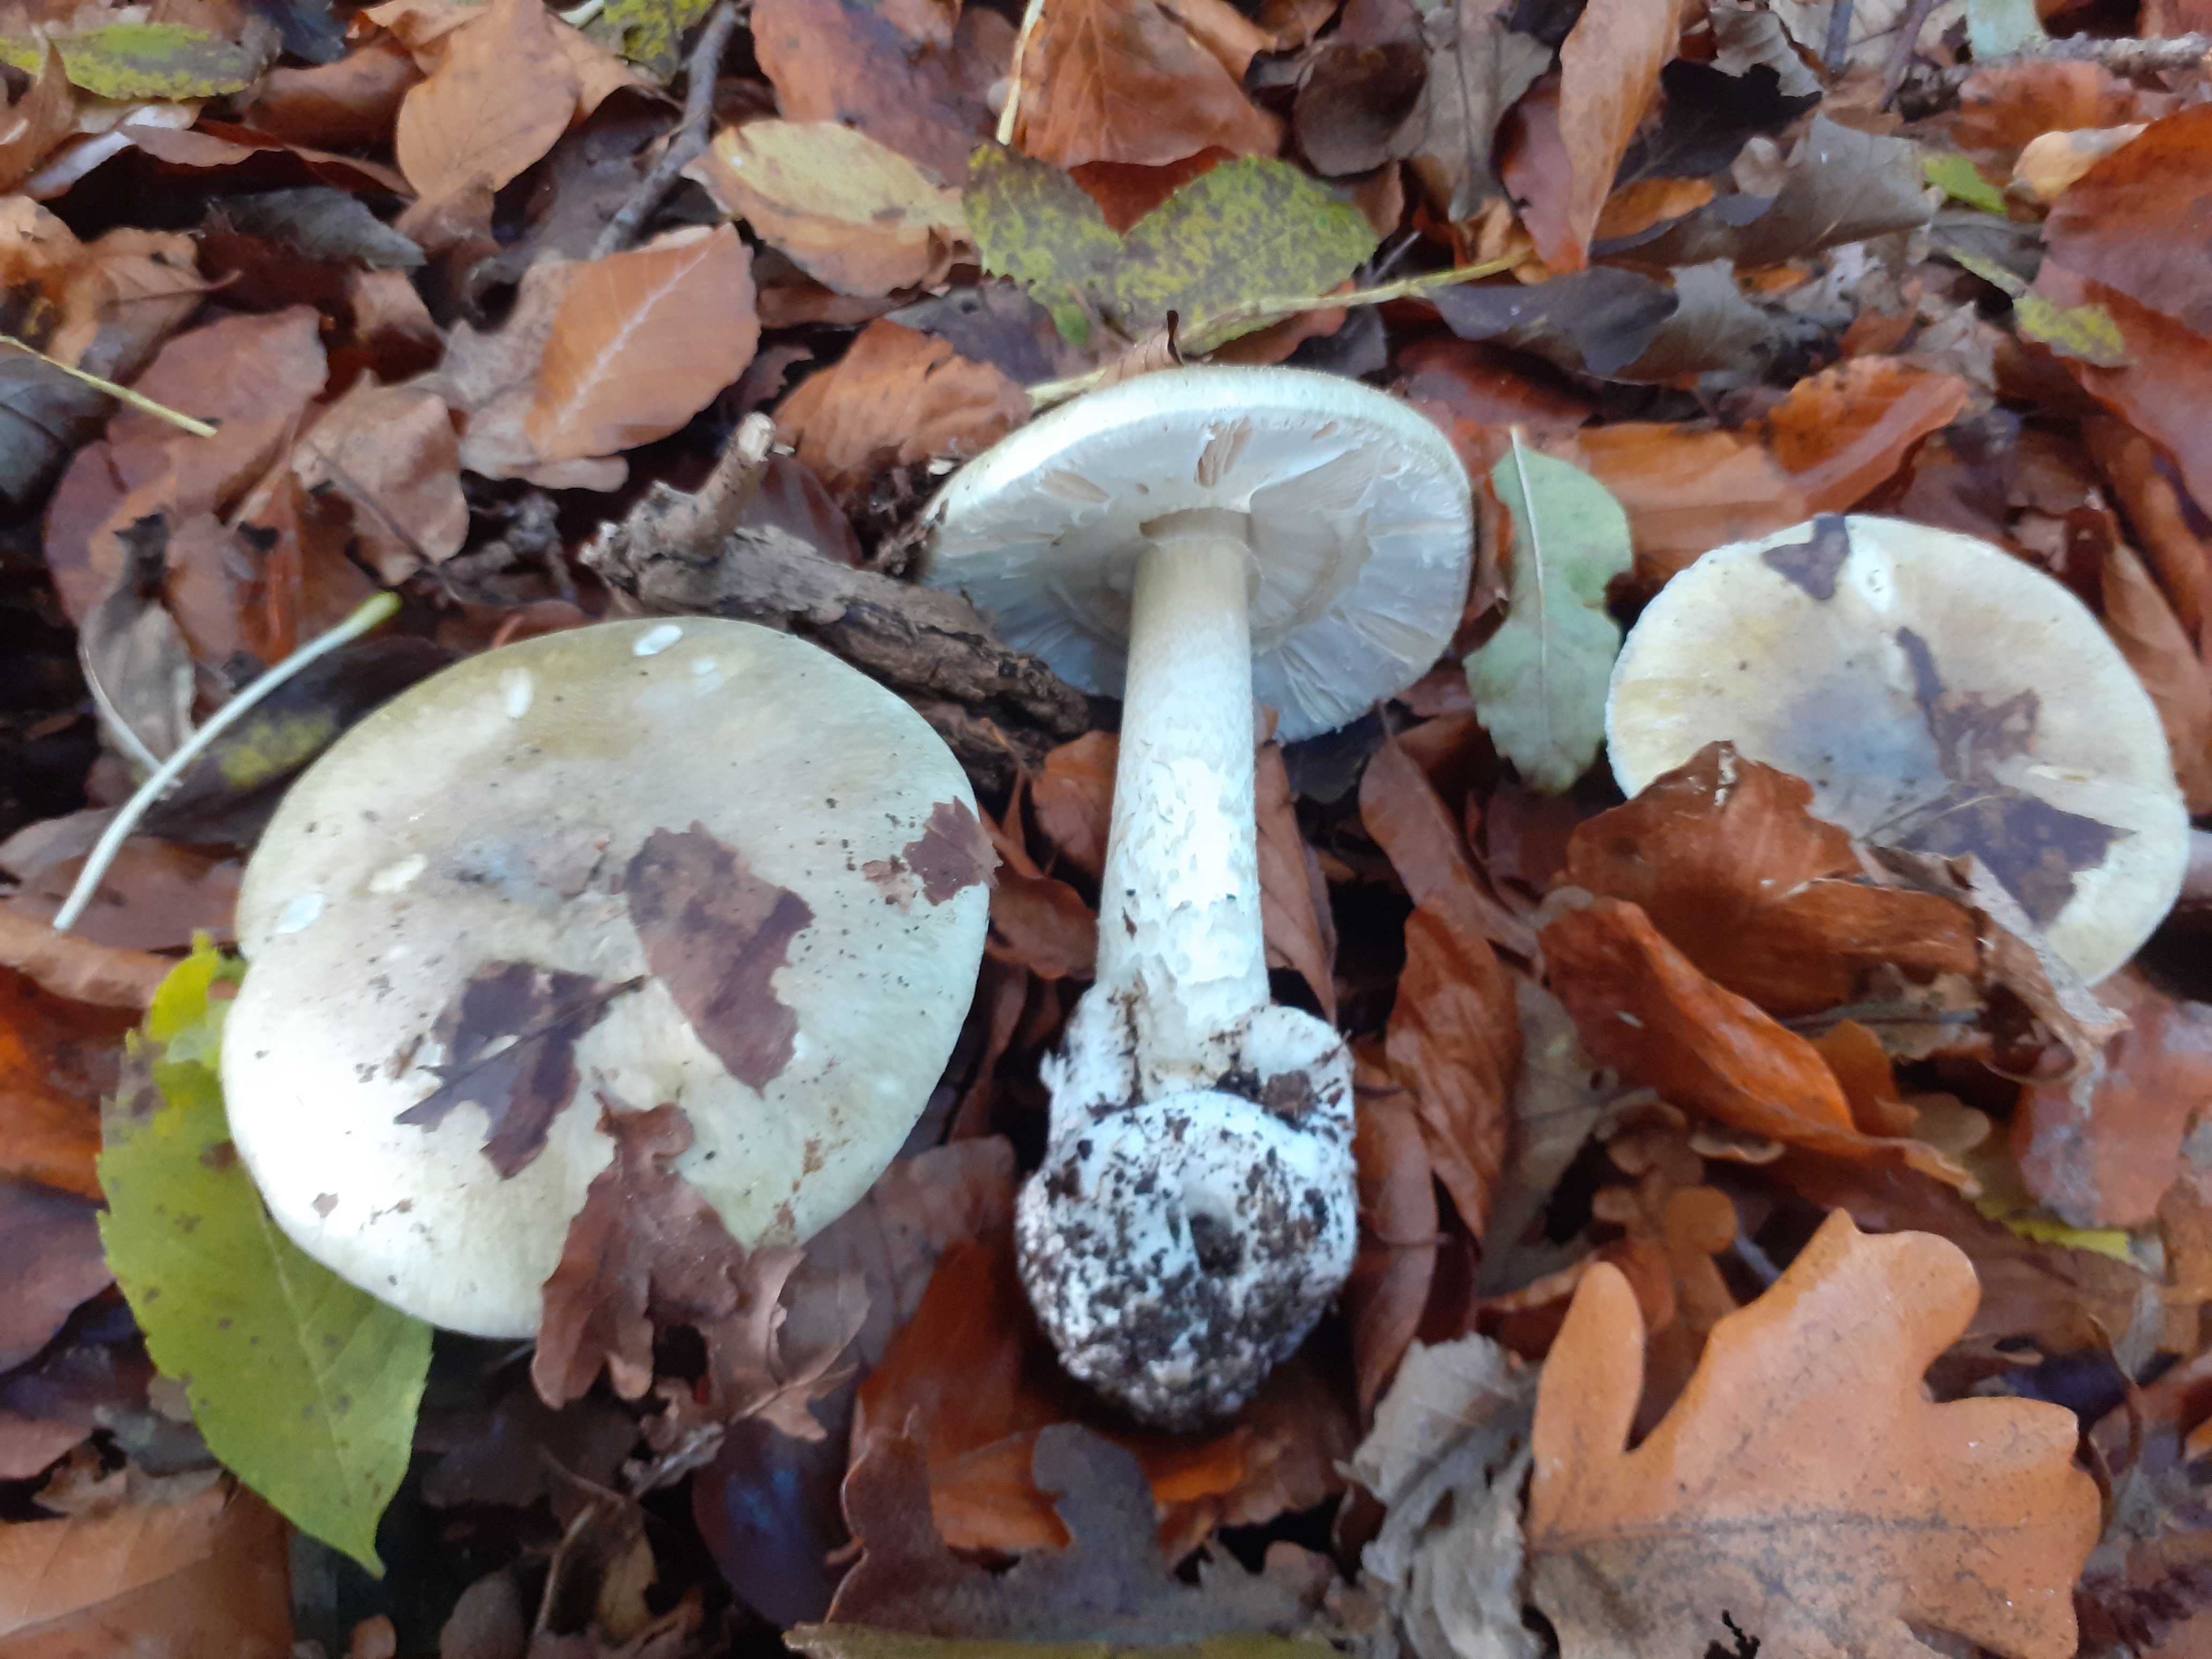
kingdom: Fungi
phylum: Basidiomycota
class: Agaricomycetes
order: Agaricales
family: Amanitaceae
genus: Amanita
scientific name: Amanita phalloides
